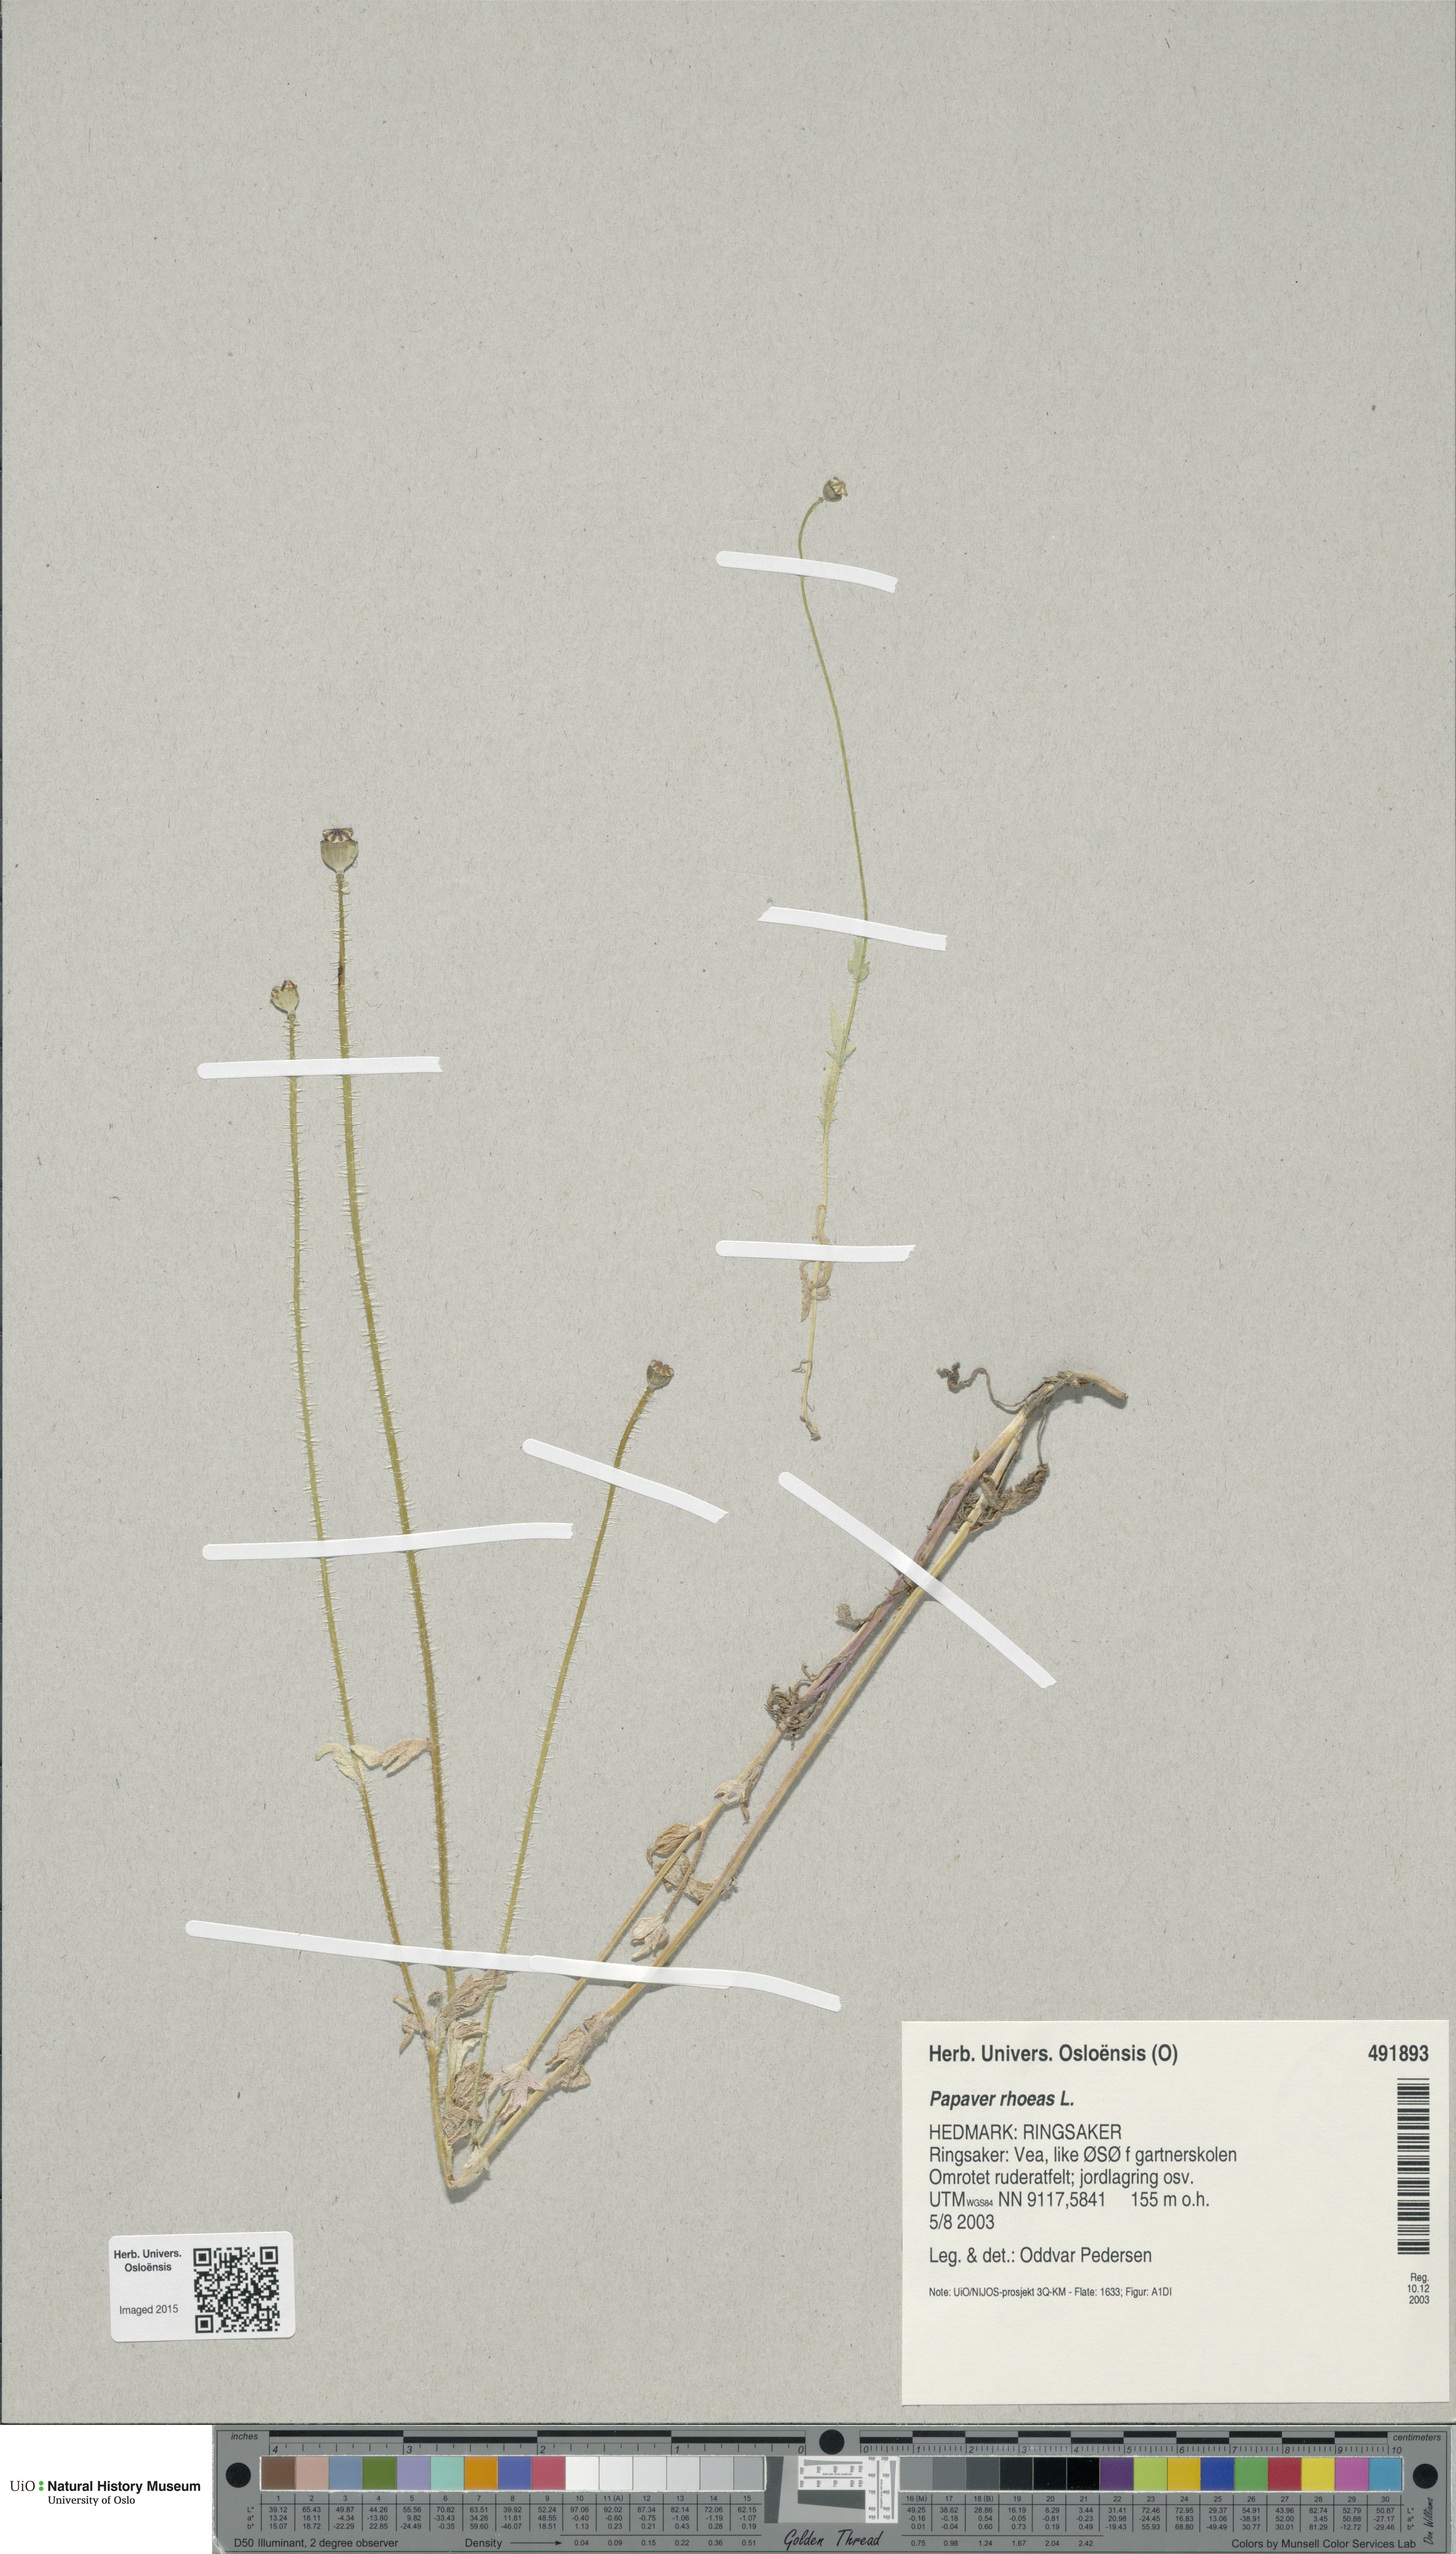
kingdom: Plantae
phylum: Tracheophyta
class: Magnoliopsida
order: Ranunculales
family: Papaveraceae
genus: Papaver
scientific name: Papaver rhoeas
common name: Corn poppy
